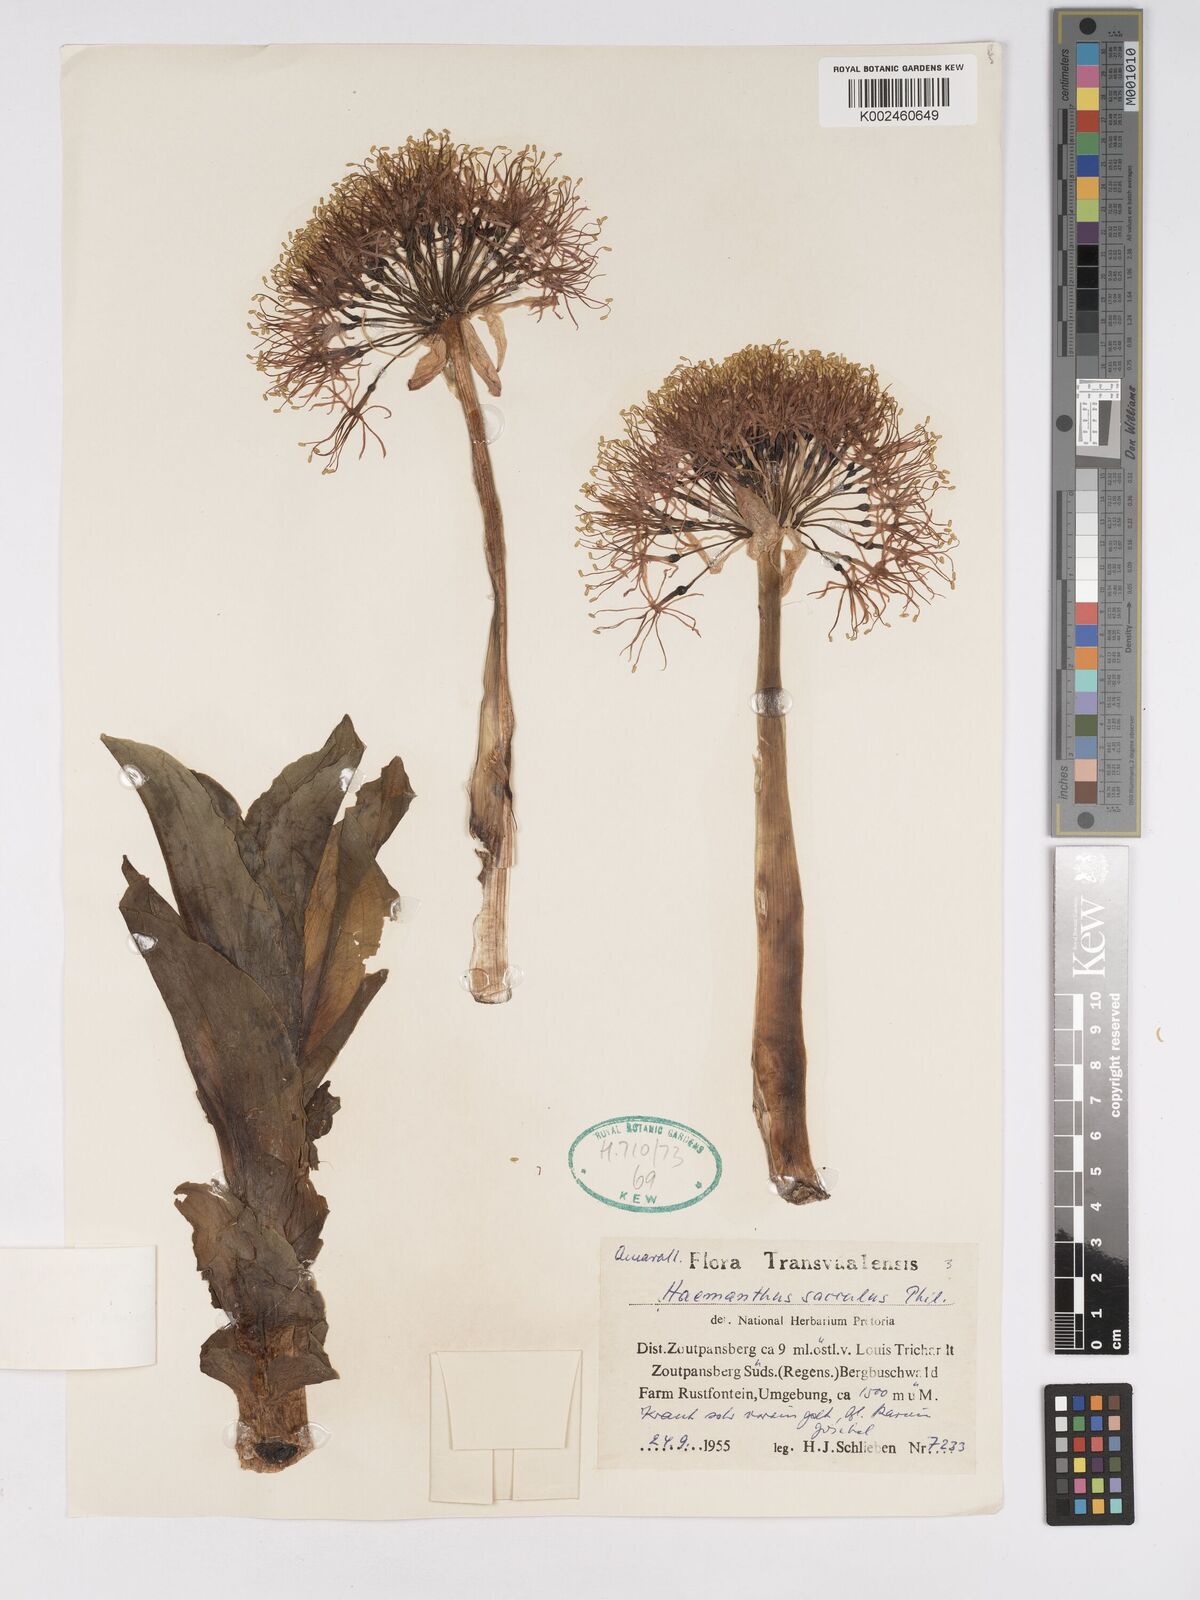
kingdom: Plantae
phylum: Tracheophyta
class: Liliopsida
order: Asparagales
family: Amaryllidaceae
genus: Scadoxus
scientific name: Scadoxus multiflorus
